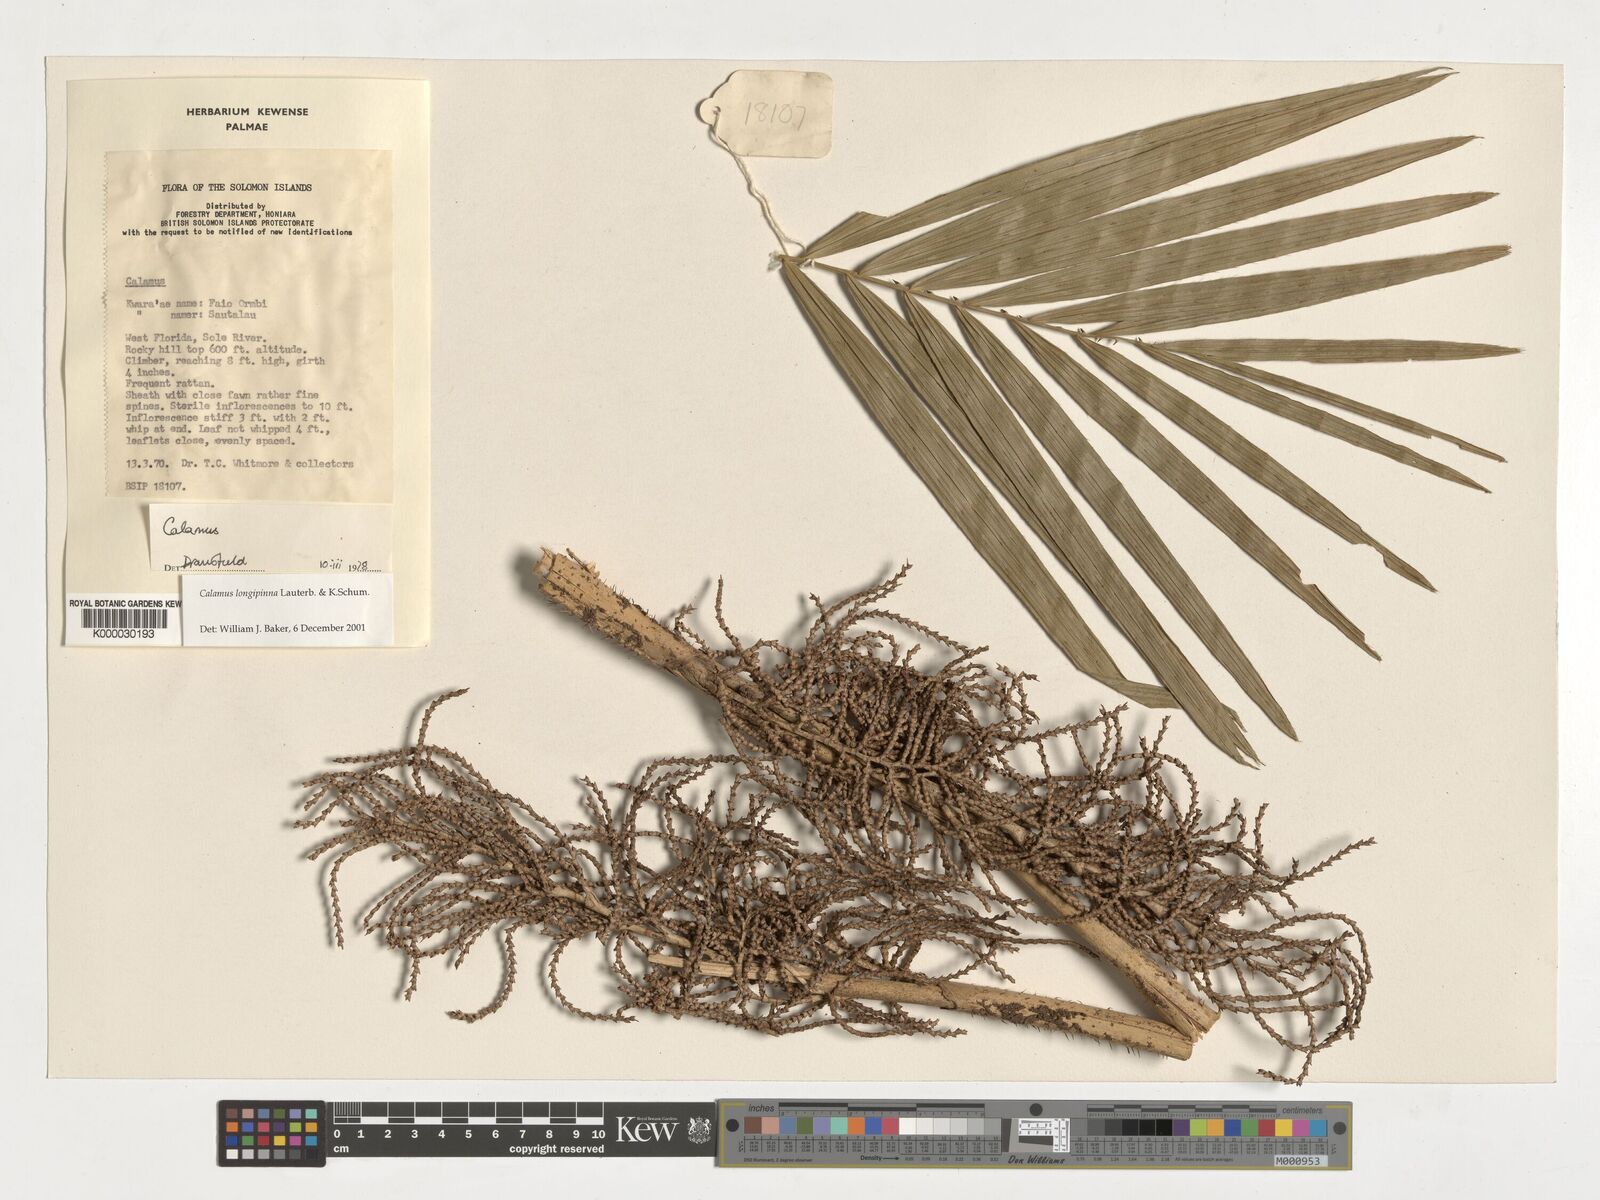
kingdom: Plantae
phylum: Tracheophyta
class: Liliopsida
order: Arecales
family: Arecaceae
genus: Calamus
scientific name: Calamus longipinna
